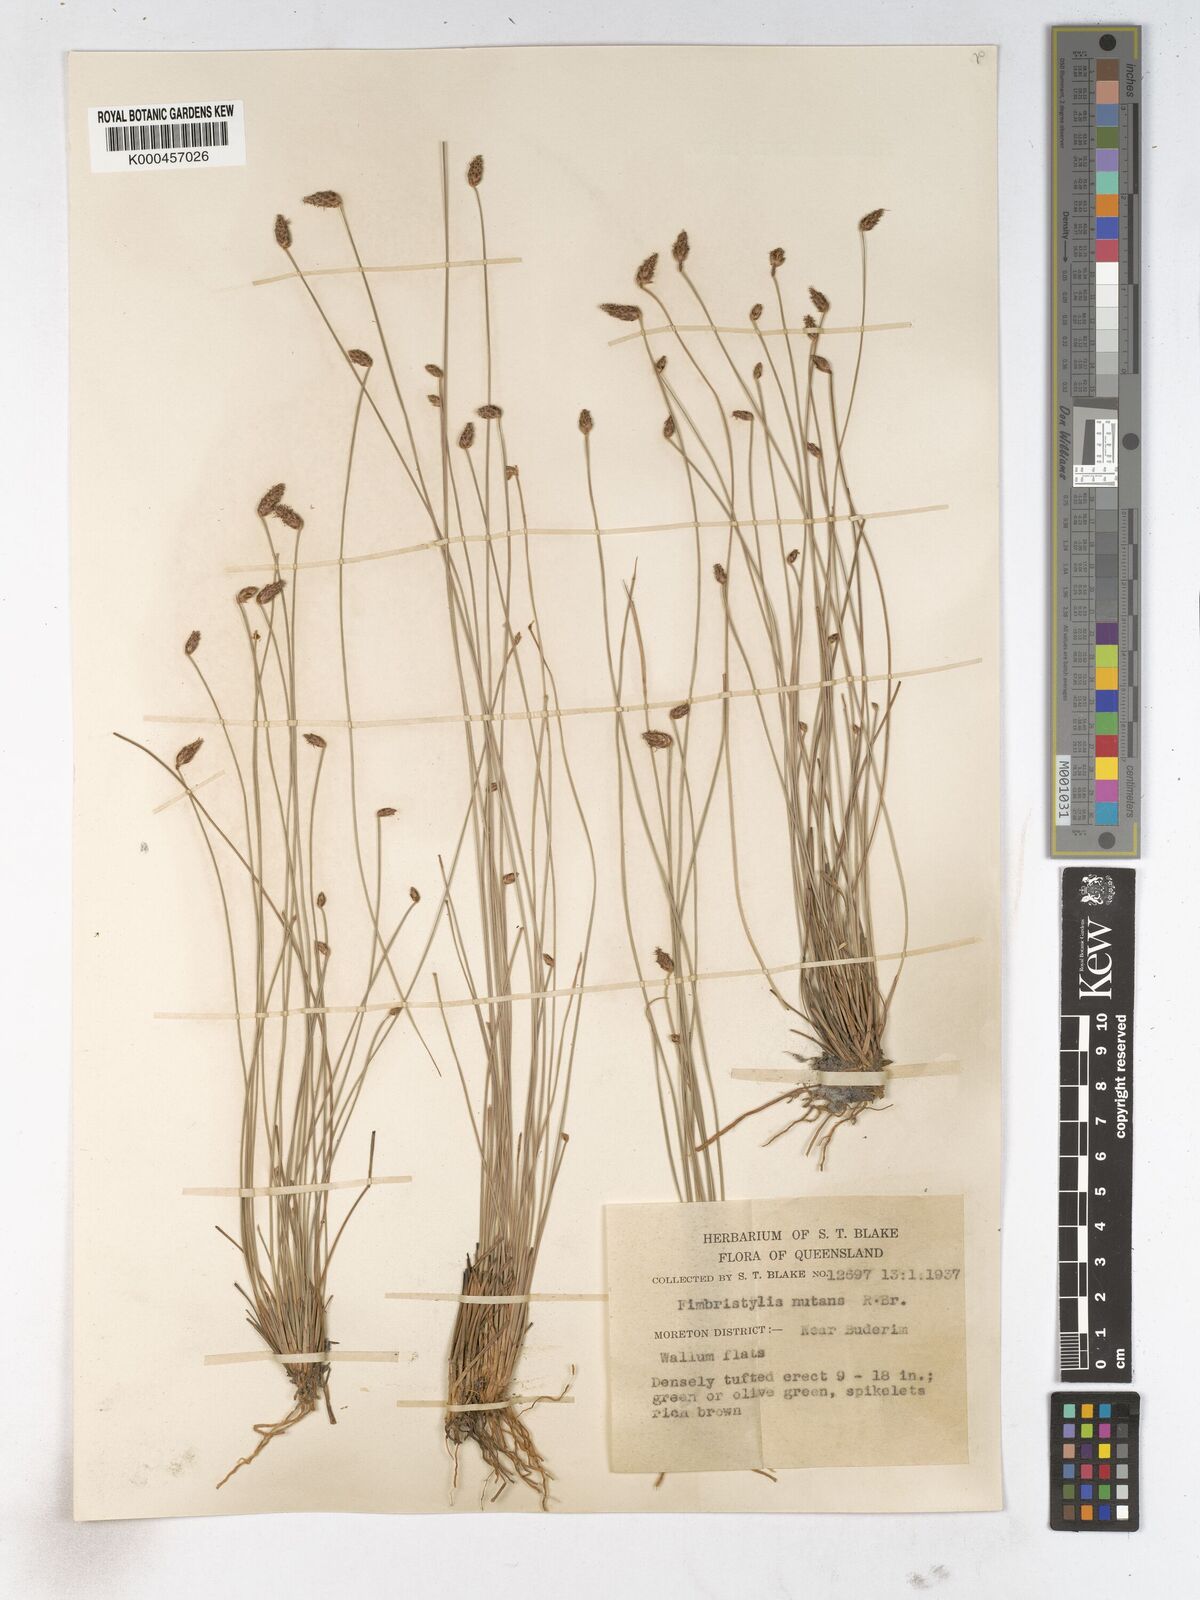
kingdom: Plantae
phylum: Tracheophyta
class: Liliopsida
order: Poales
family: Cyperaceae
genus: Fimbristylis
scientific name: Fimbristylis nutans
